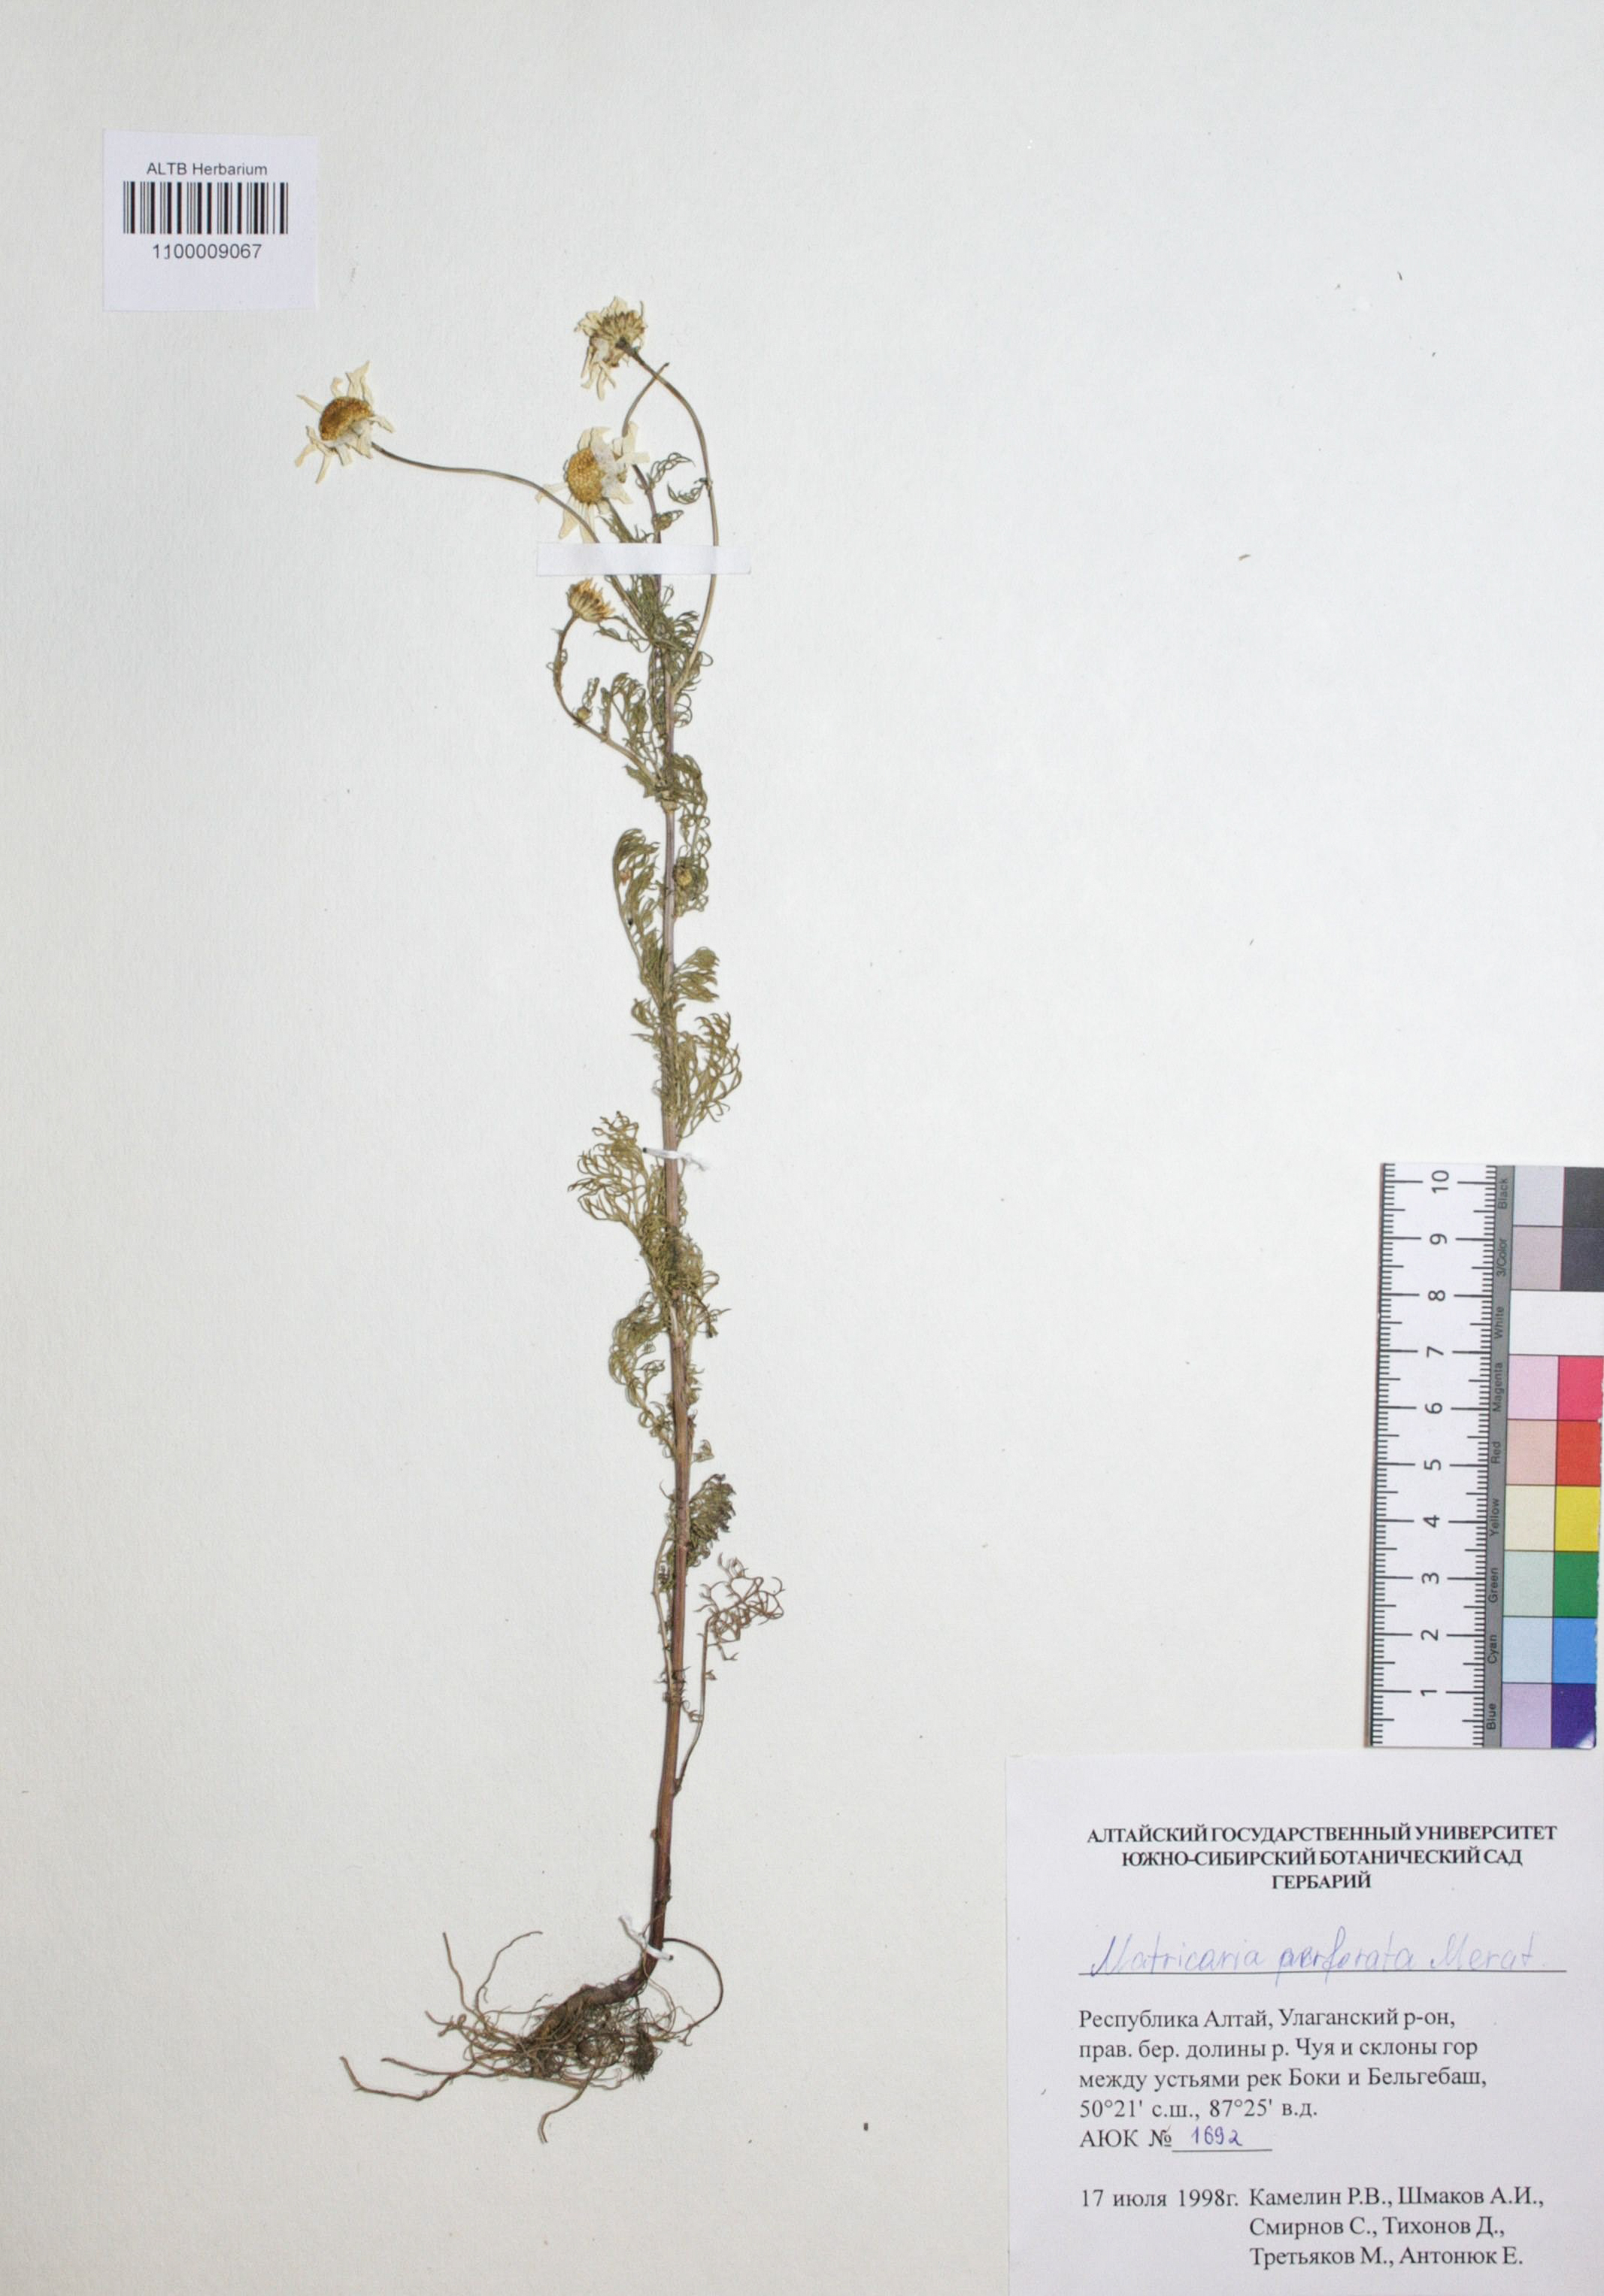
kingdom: Plantae
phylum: Tracheophyta
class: Magnoliopsida
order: Asterales
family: Asteraceae
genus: Tripleurospermum
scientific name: Tripleurospermum inodorum
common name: Scentless mayweed
